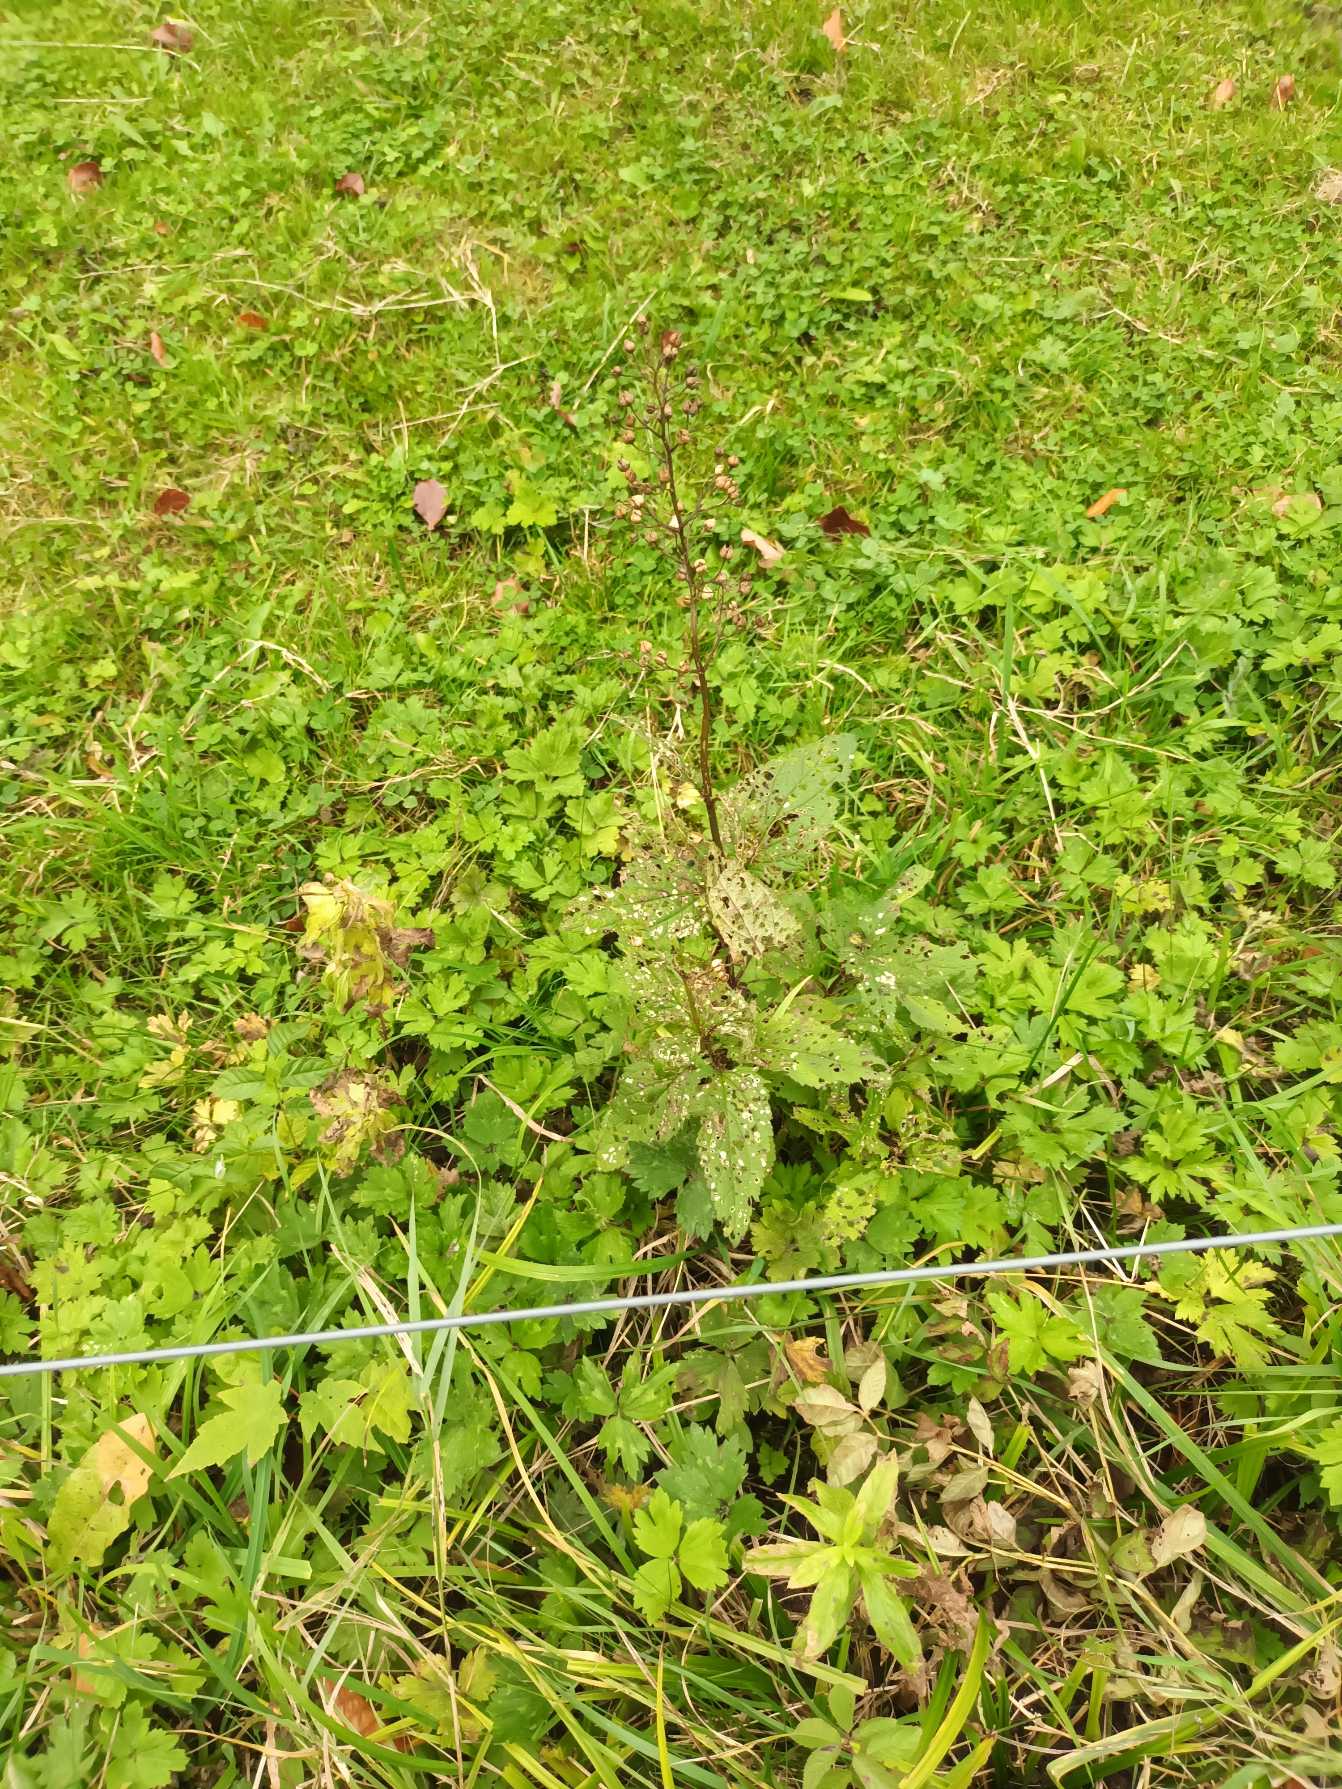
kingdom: Plantae
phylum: Tracheophyta
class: Magnoliopsida
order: Lamiales
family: Scrophulariaceae
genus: Scrophularia
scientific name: Scrophularia nodosa
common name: Knoldet brunrod
